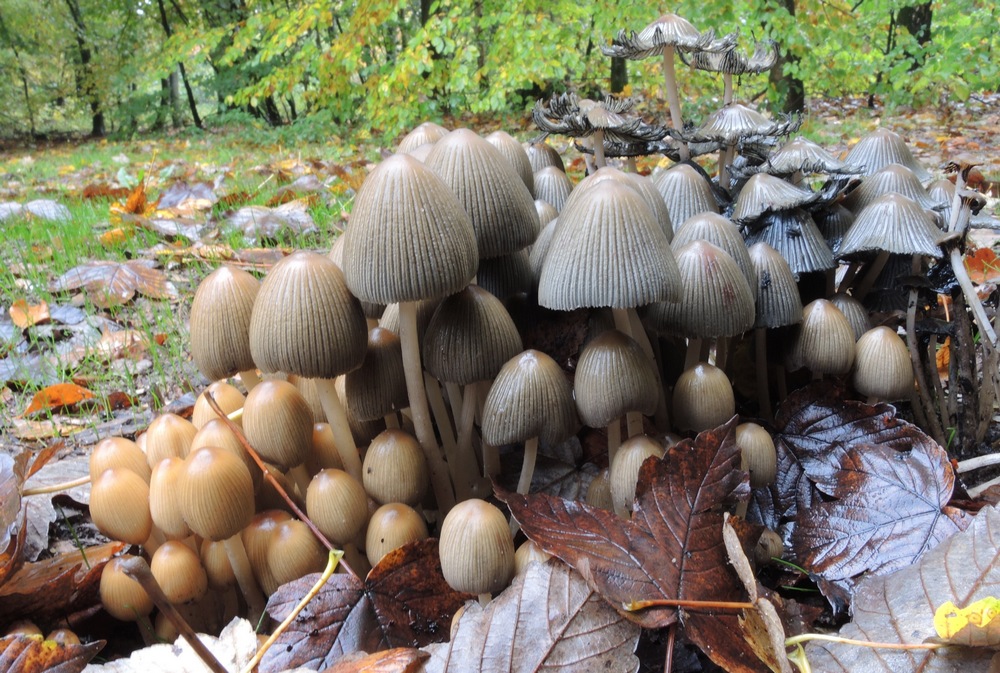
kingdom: Fungi
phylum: Basidiomycota
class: Agaricomycetes
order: Agaricales
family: Psathyrellaceae
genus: Coprinellus
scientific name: Coprinellus deliquescens
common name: rusporet blækhat
